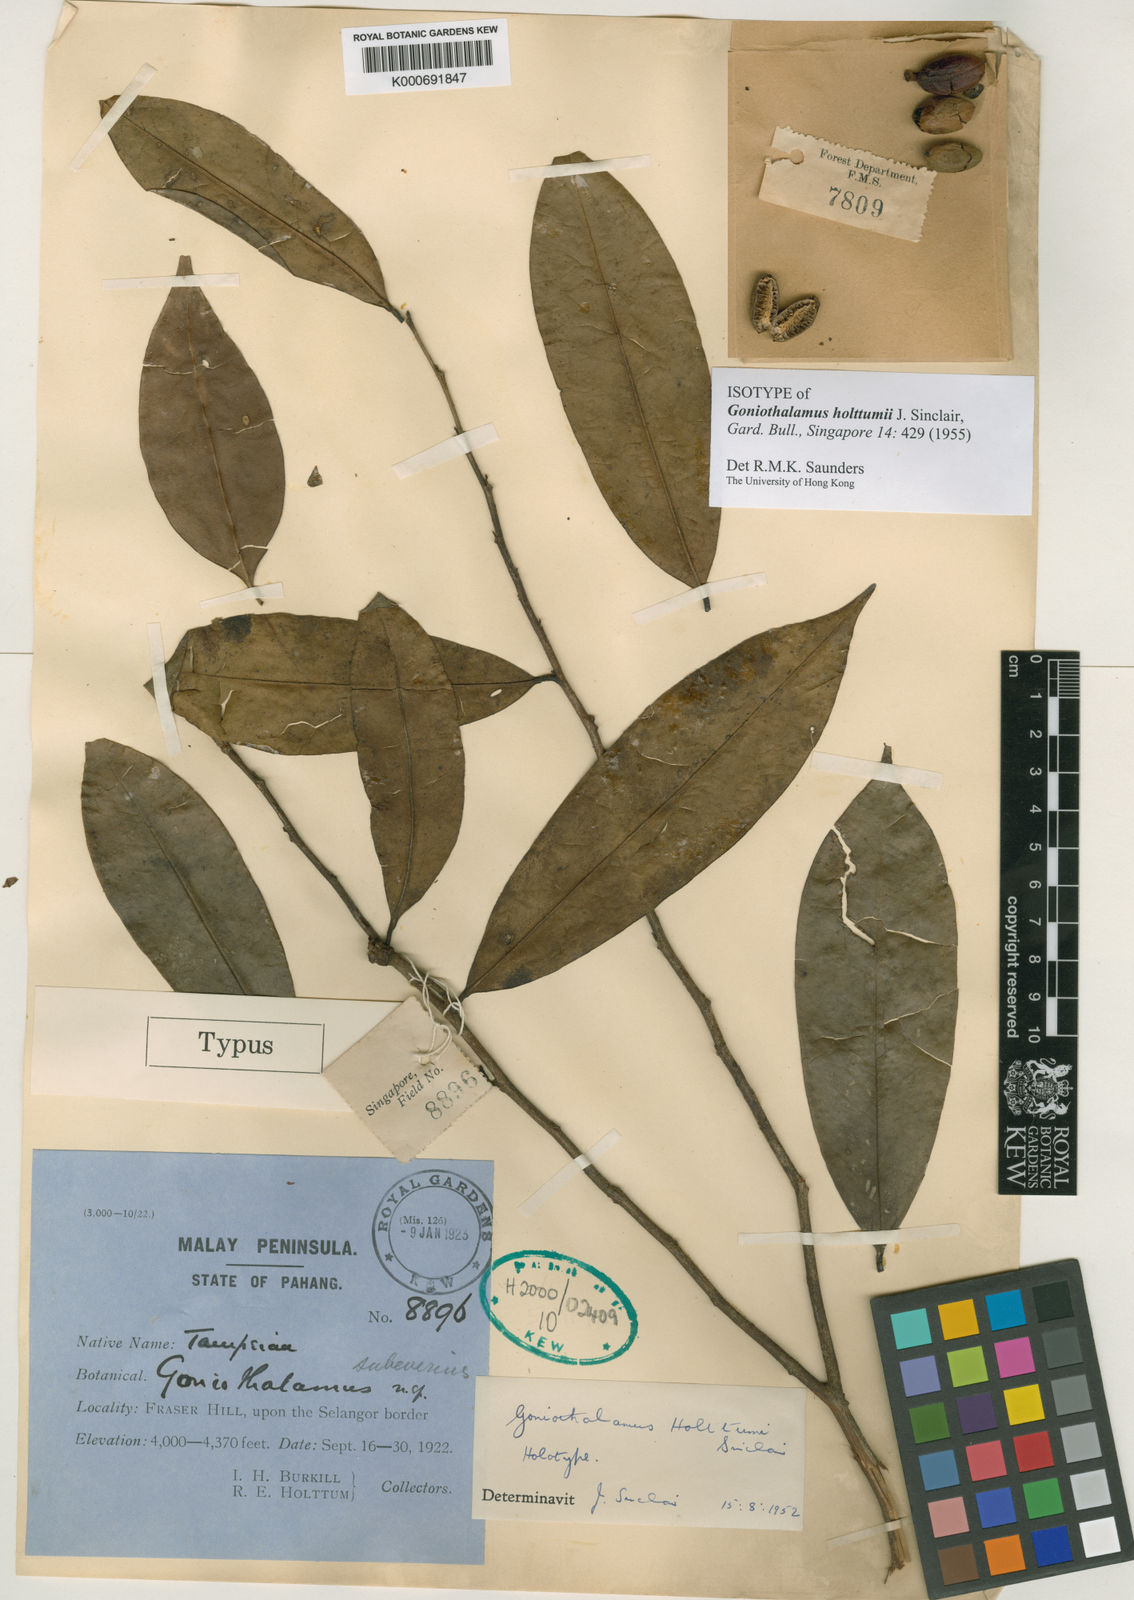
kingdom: Plantae
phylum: Tracheophyta
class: Magnoliopsida
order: Magnoliales
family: Annonaceae
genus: Goniothalamus
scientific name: Goniothalamus holttumii
